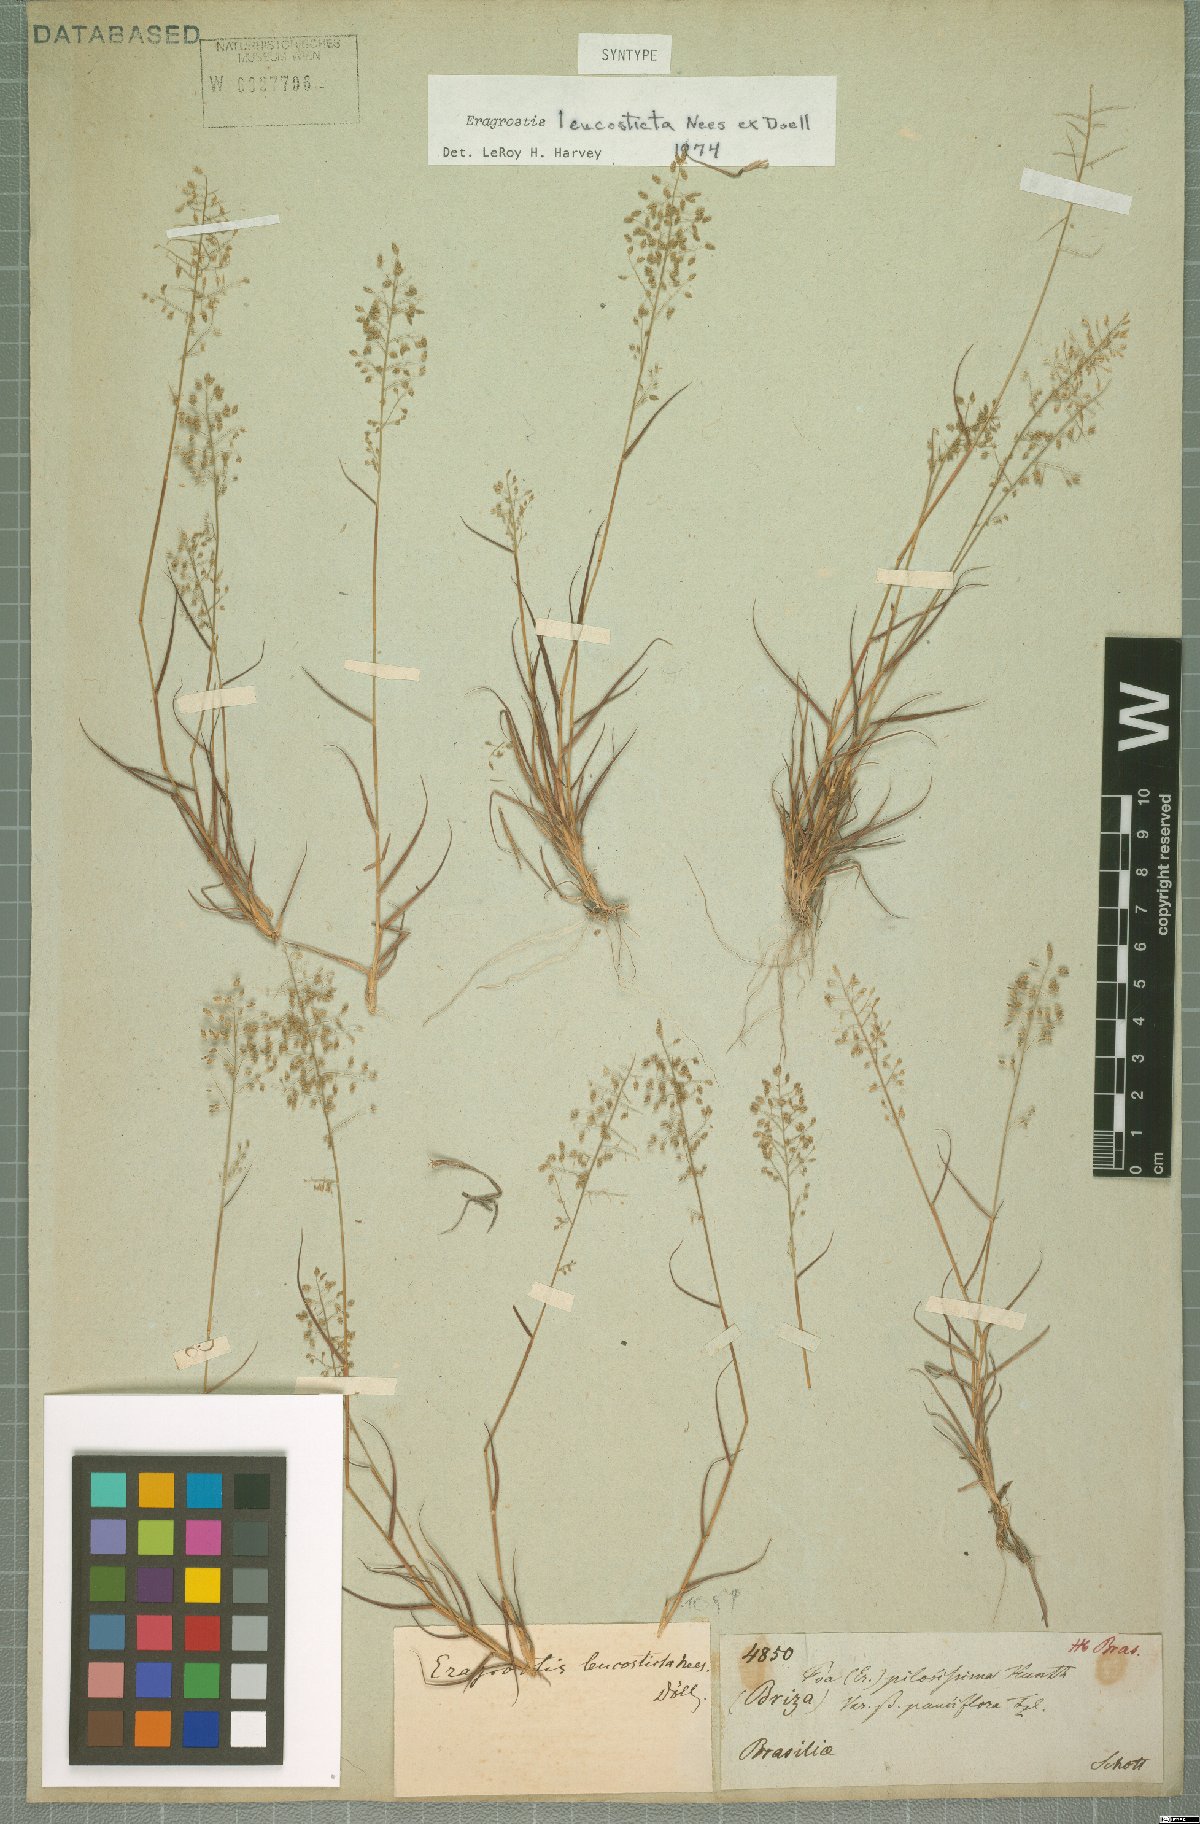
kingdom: Plantae
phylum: Tracheophyta
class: Liliopsida
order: Poales
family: Poaceae
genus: Eragrostis
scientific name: Eragrostis leucosticta
